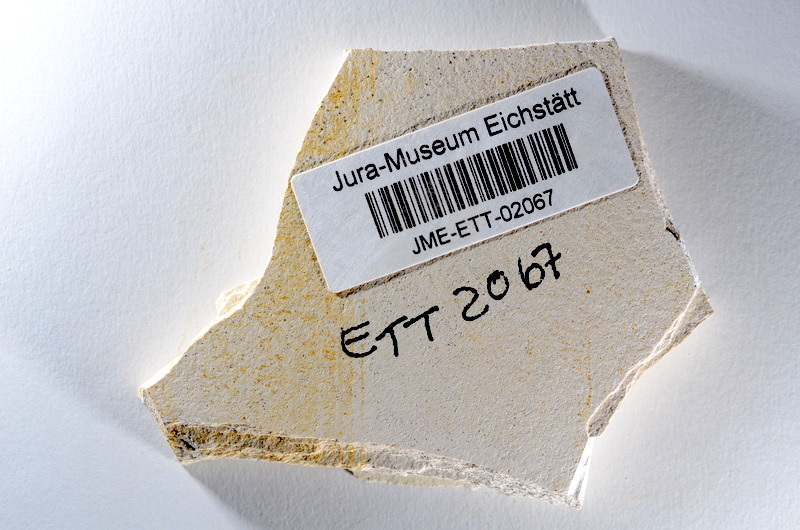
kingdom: Animalia
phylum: Chordata
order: Salmoniformes
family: Orthogonikleithridae
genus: Orthogonikleithrus
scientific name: Orthogonikleithrus hoelli
